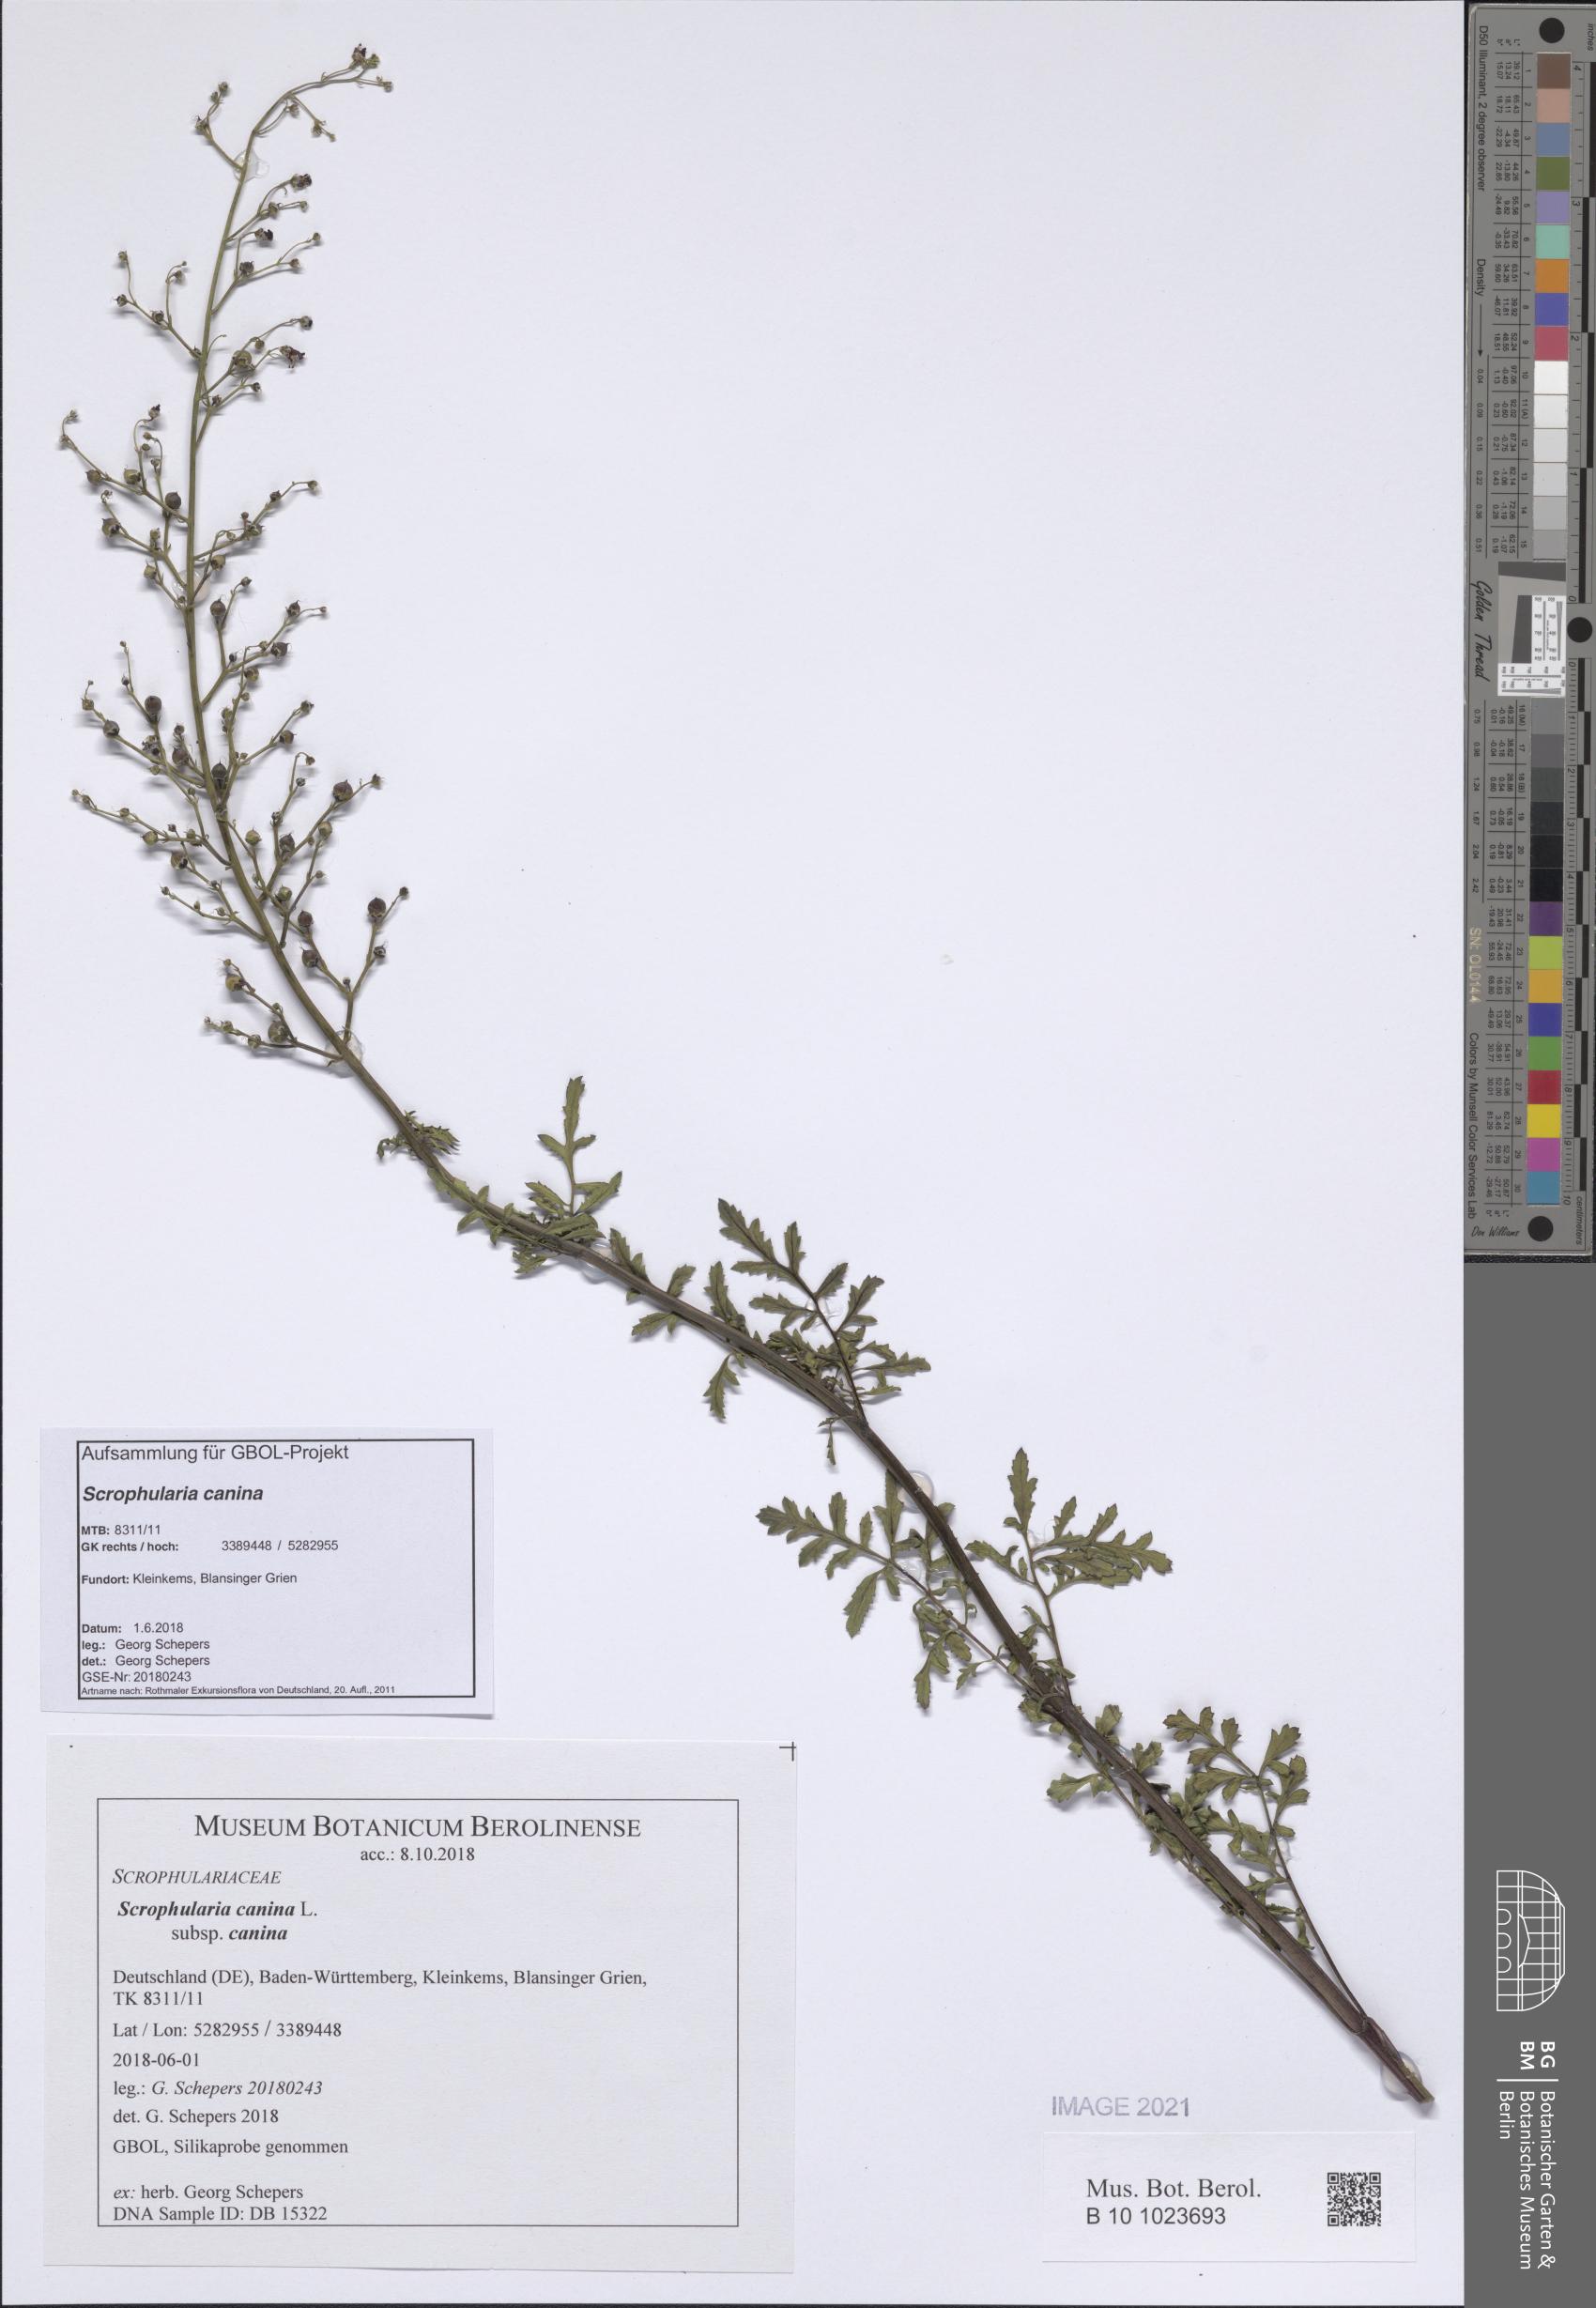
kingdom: Plantae
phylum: Tracheophyta
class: Magnoliopsida
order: Lamiales
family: Scrophulariaceae
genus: Scrophularia
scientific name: Scrophularia canina
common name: French figwort
